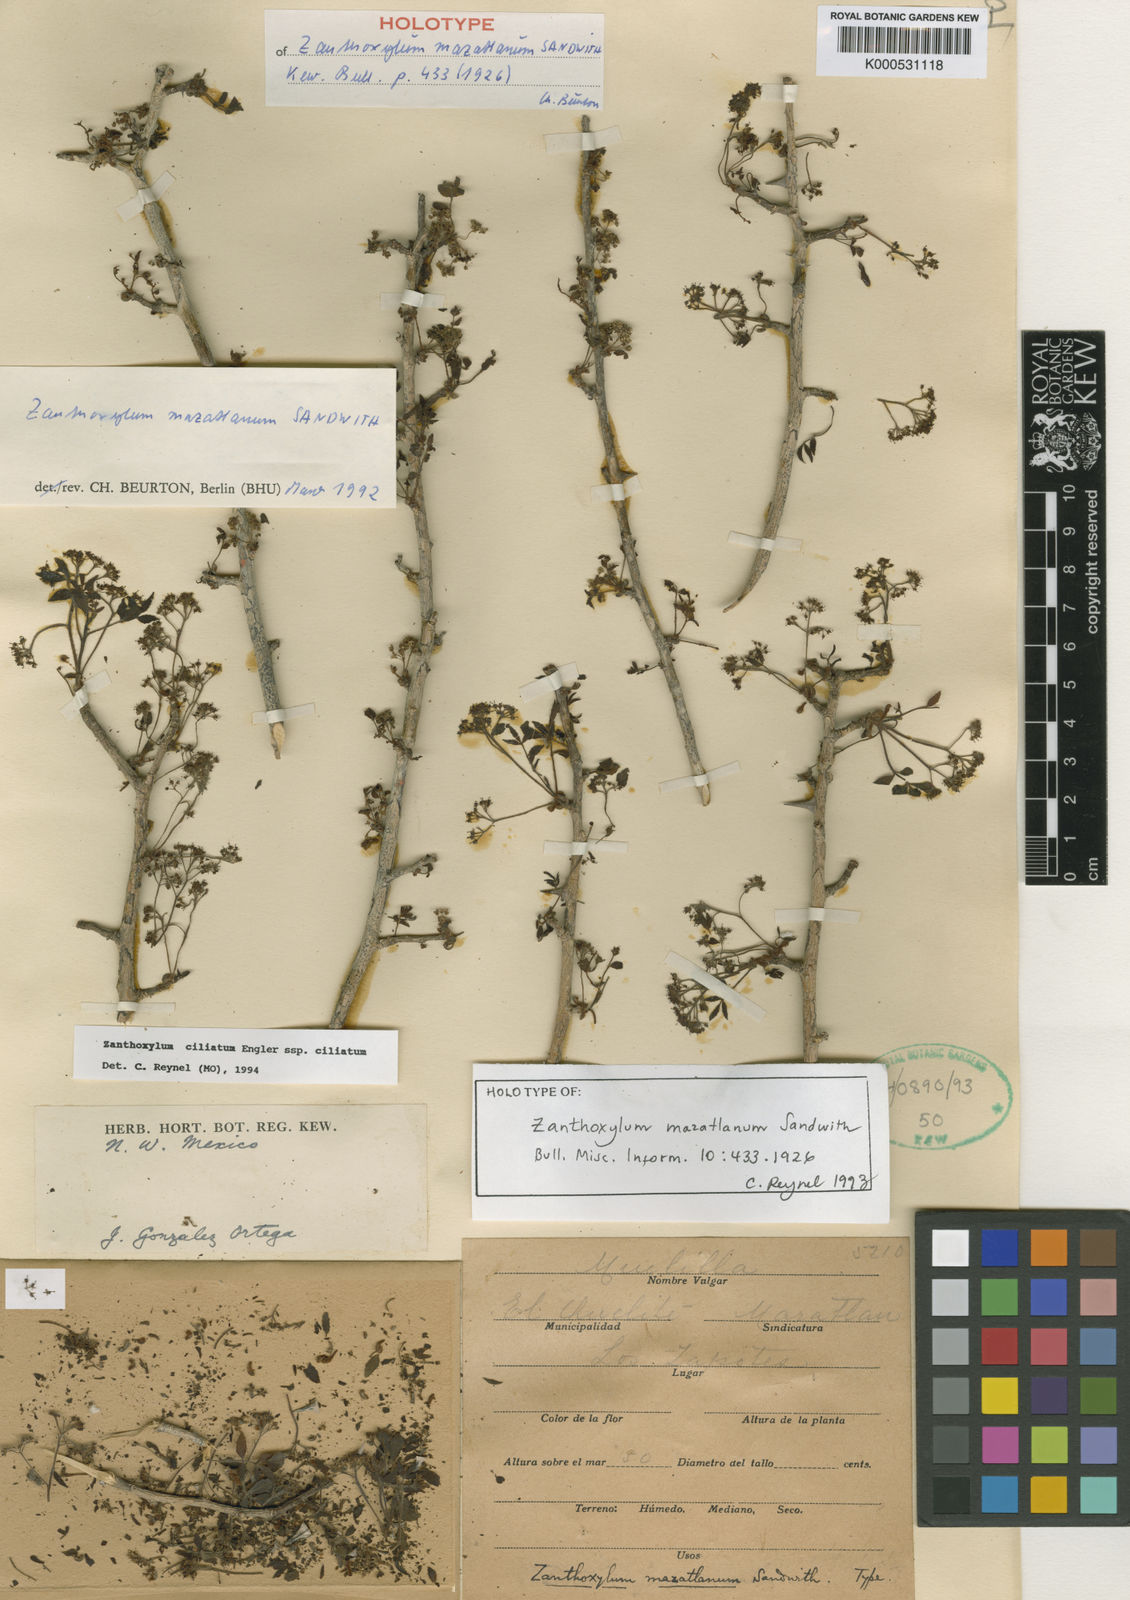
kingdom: Plantae
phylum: Tracheophyta
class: Magnoliopsida
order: Sapindales
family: Rutaceae
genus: Zanthoxylum
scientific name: Zanthoxylum ciliatum
